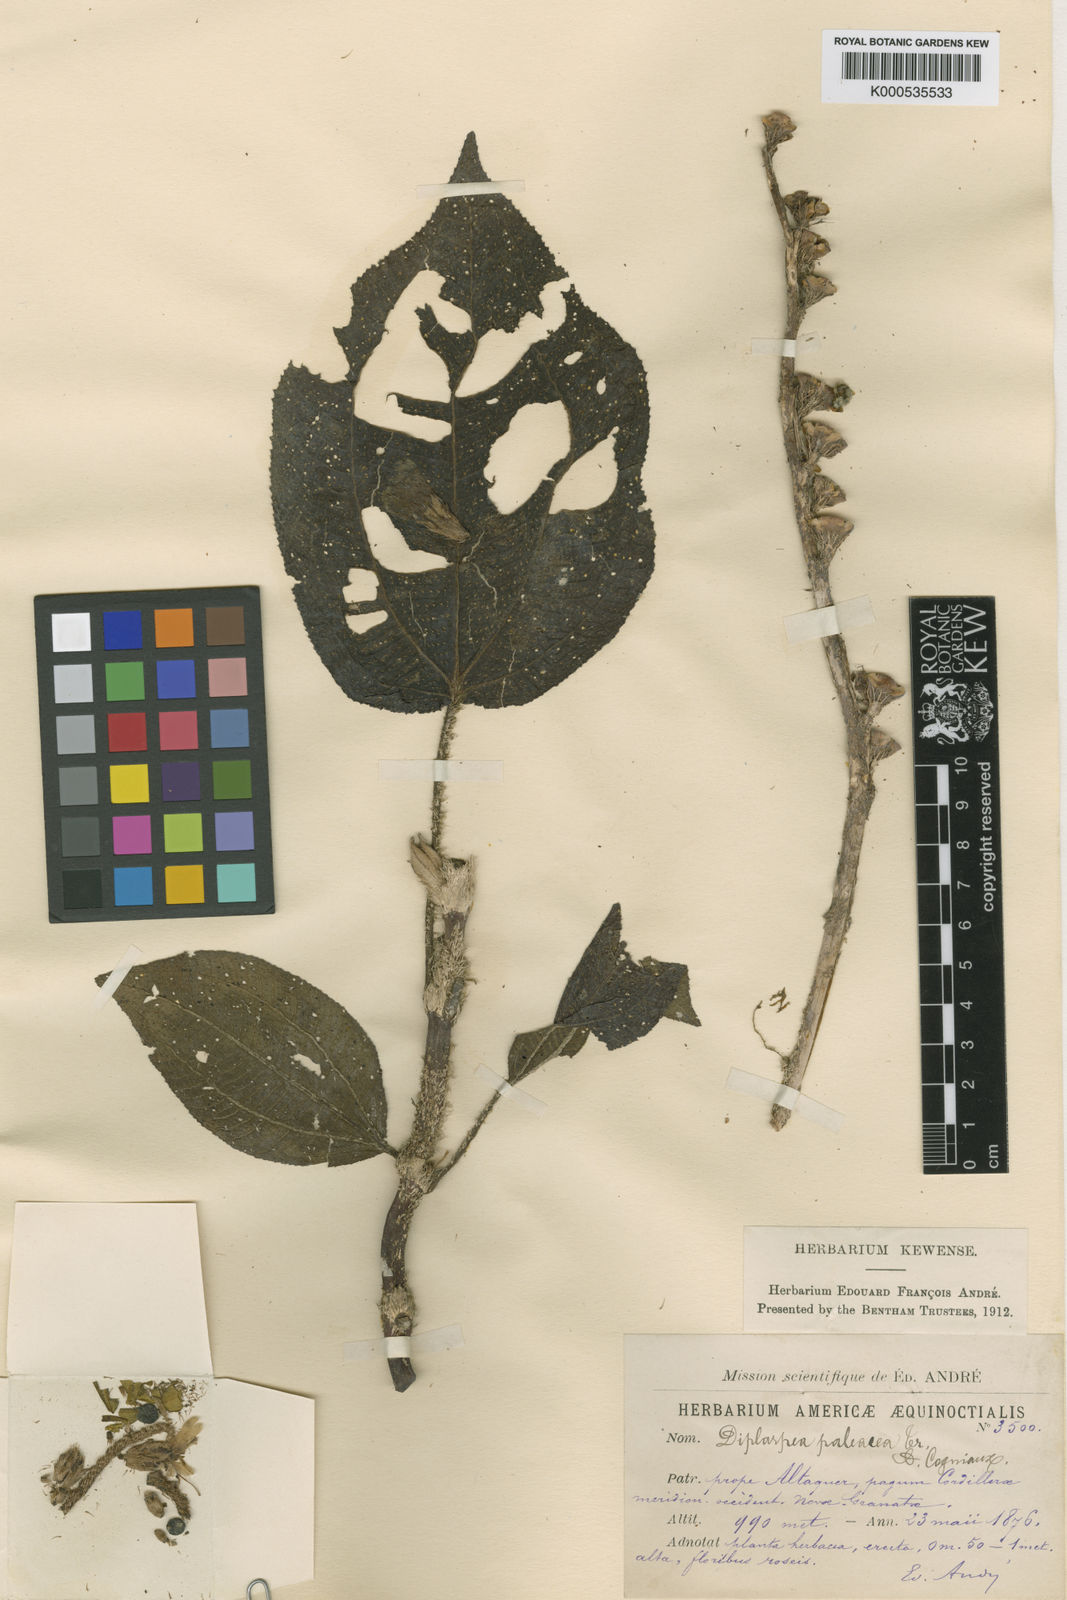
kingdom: Plantae
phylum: Tracheophyta
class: Magnoliopsida
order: Myrtales
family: Melastomataceae
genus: Andesanthus
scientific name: Andesanthus paleaceus
